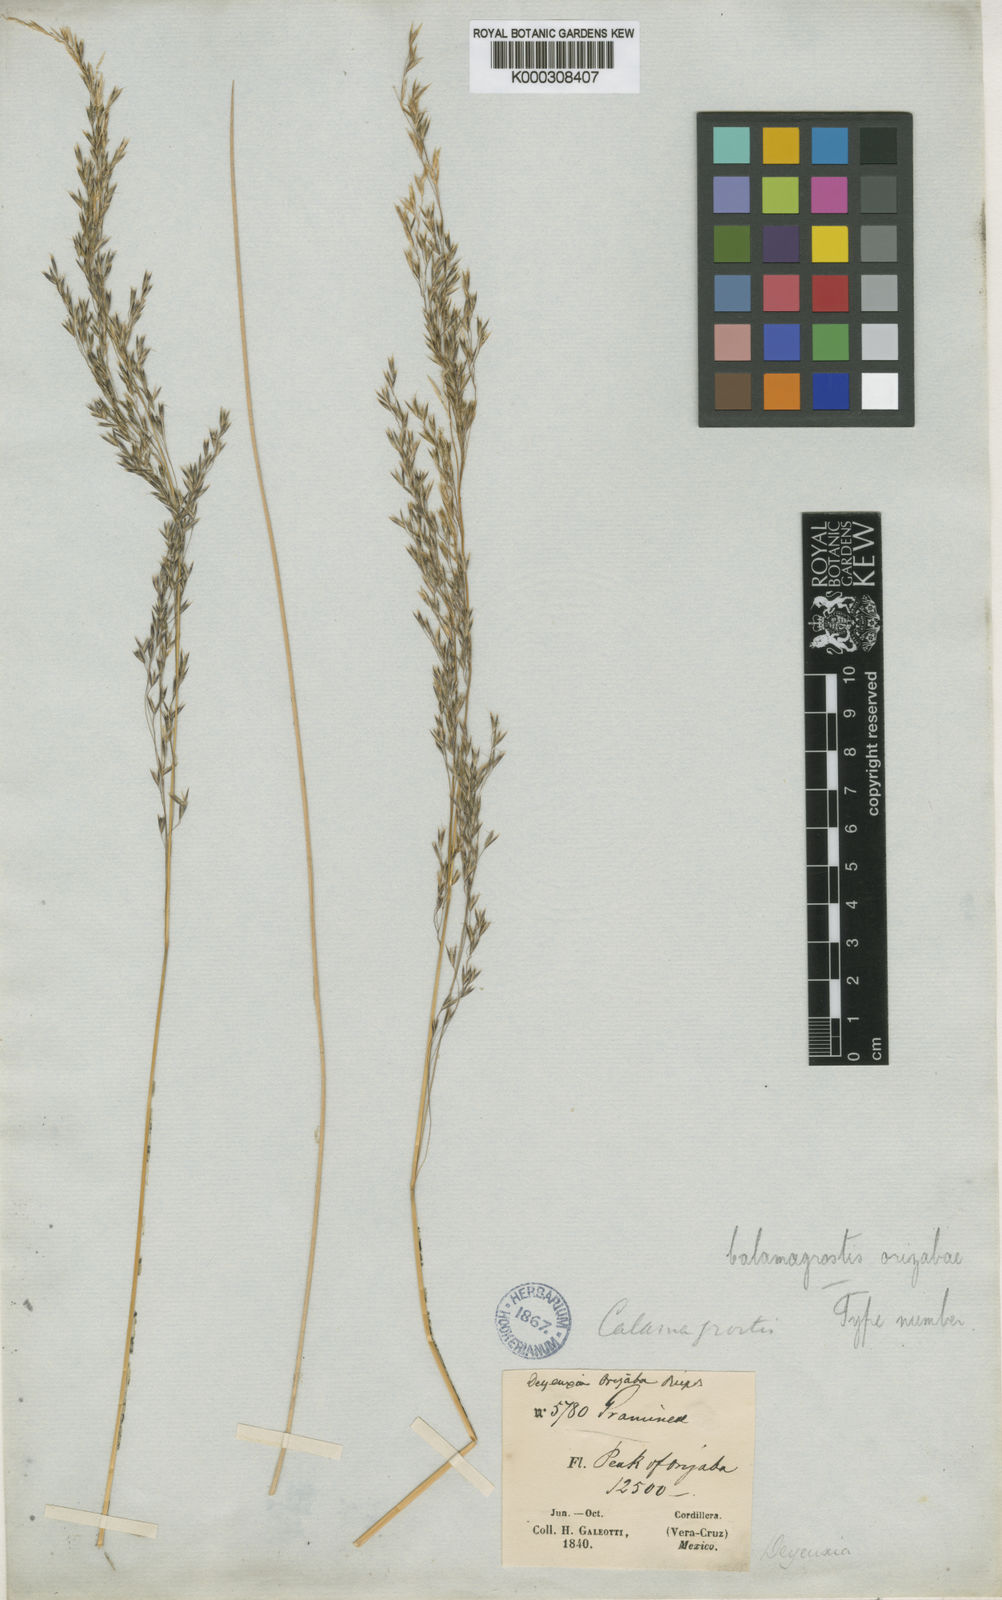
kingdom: Plantae
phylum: Tracheophyta
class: Liliopsida
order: Poales
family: Poaceae
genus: Peyritschia
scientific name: Peyritschia orizabae
